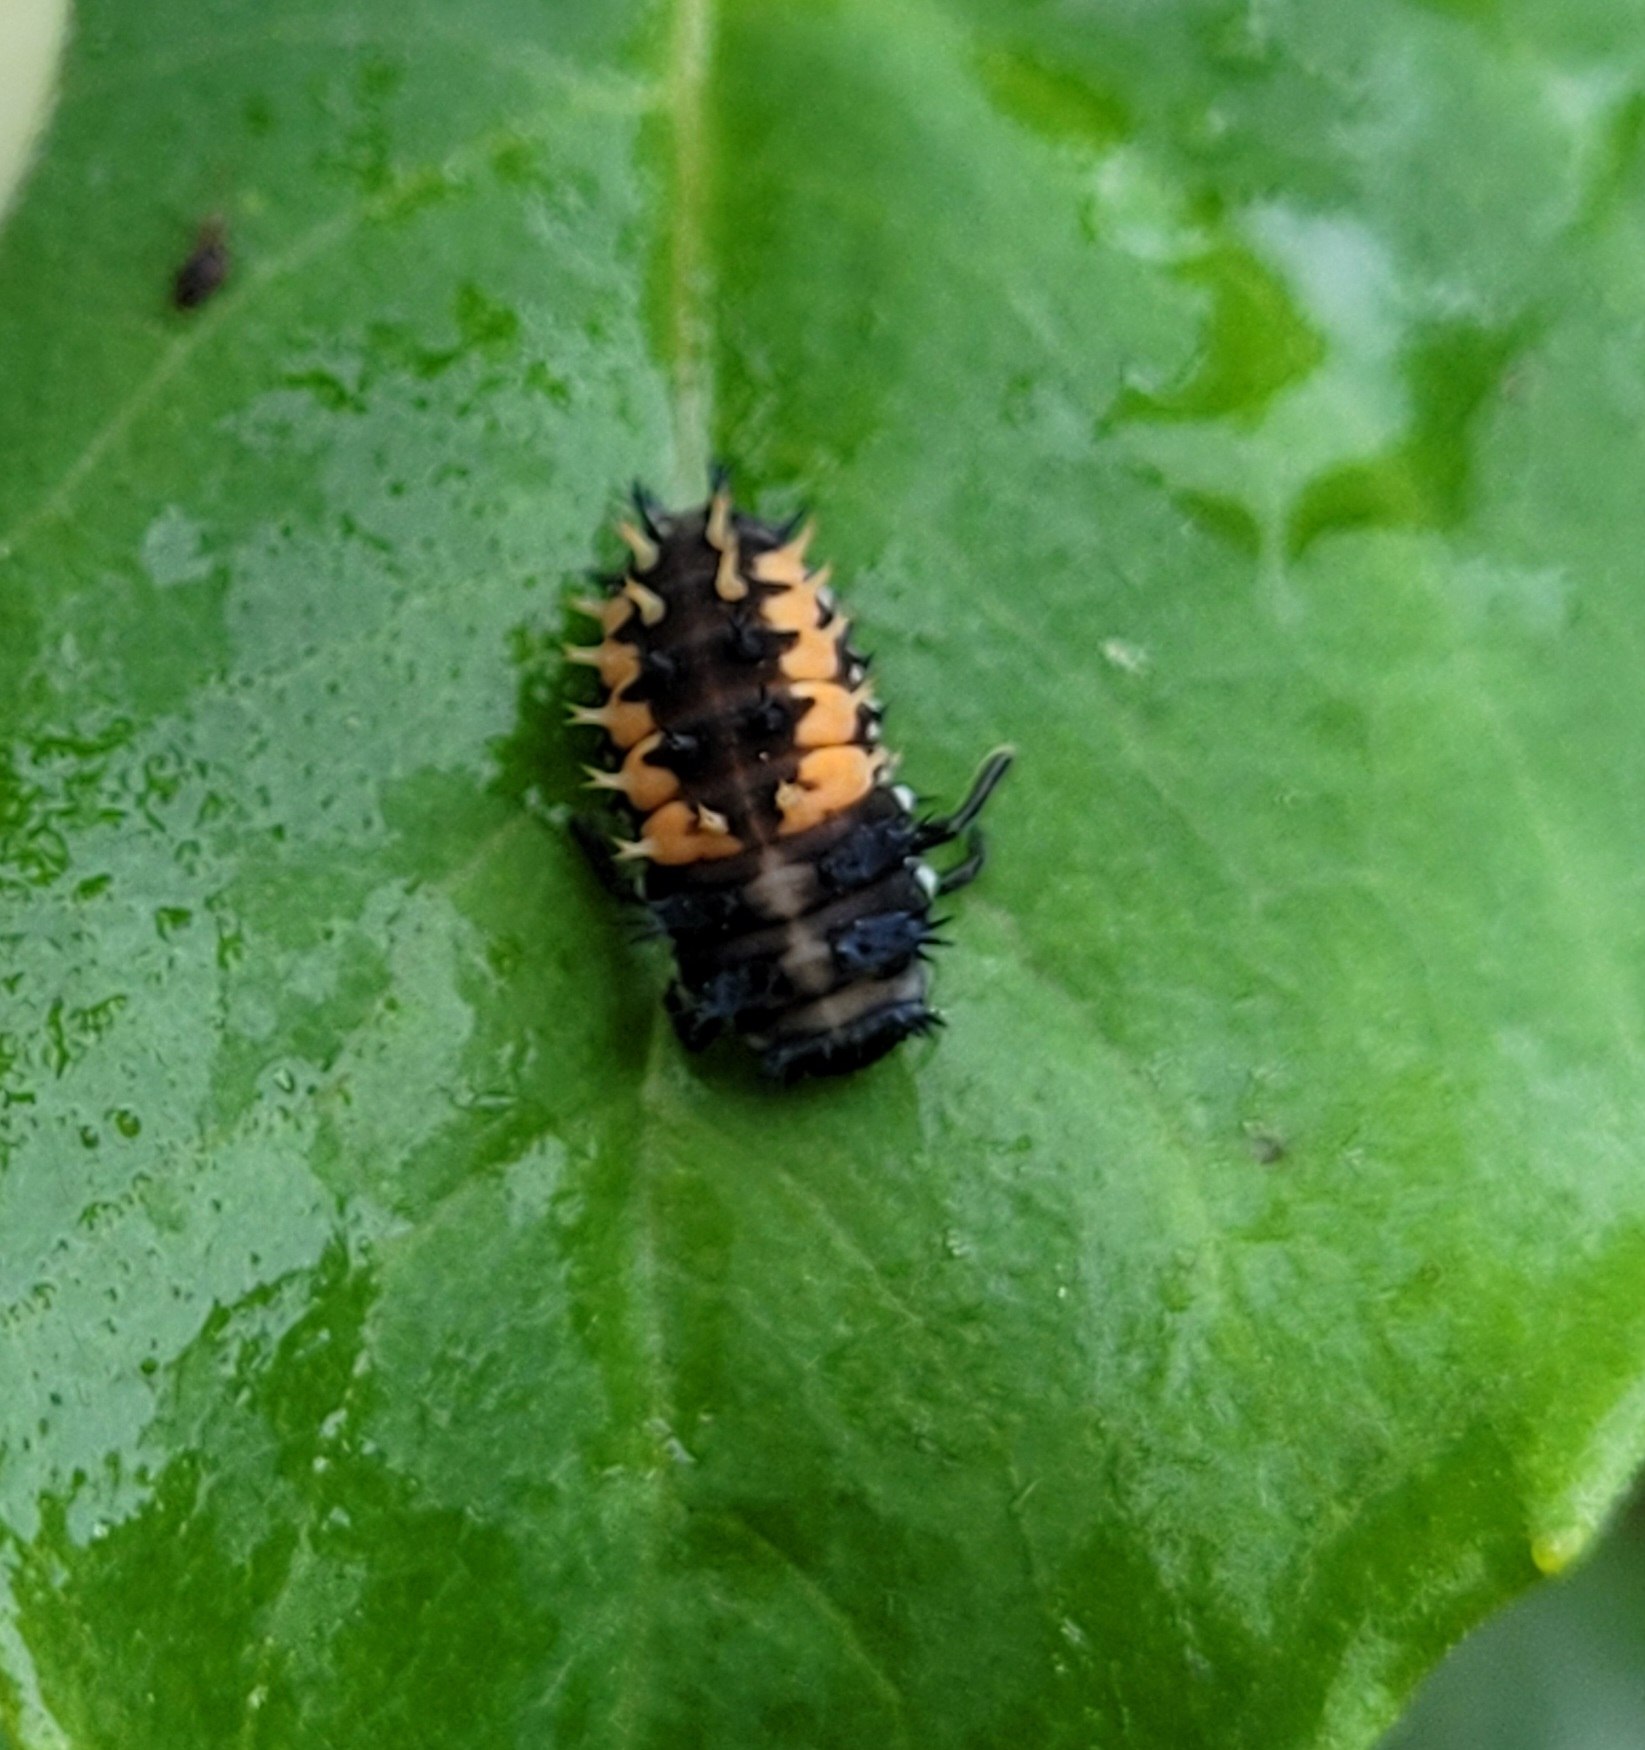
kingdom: Animalia
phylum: Arthropoda
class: Insecta
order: Coleoptera
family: Coccinellidae
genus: Harmonia
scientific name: Harmonia axyridis
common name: Harlekinmariehøne
